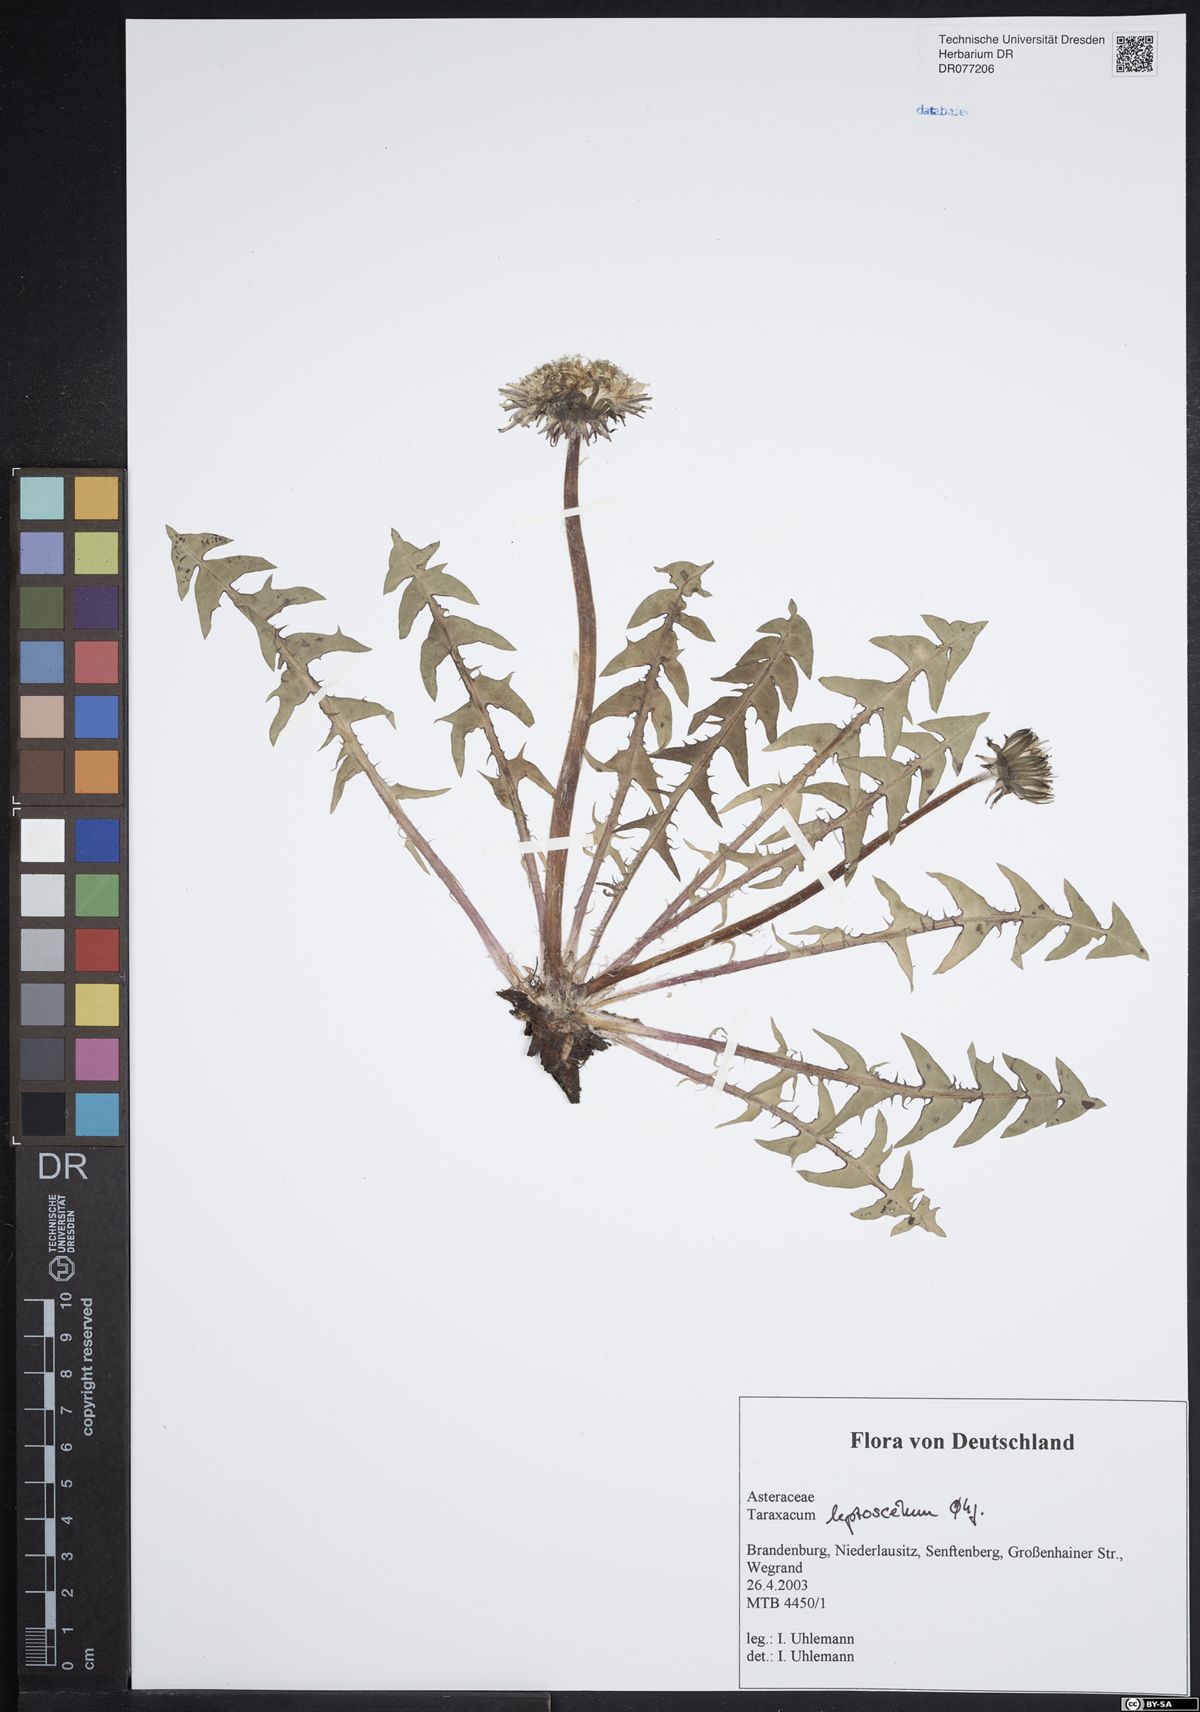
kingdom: Plantae
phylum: Tracheophyta
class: Magnoliopsida
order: Asterales
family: Asteraceae
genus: Taraxacum
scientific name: Taraxacum leptoscelum
